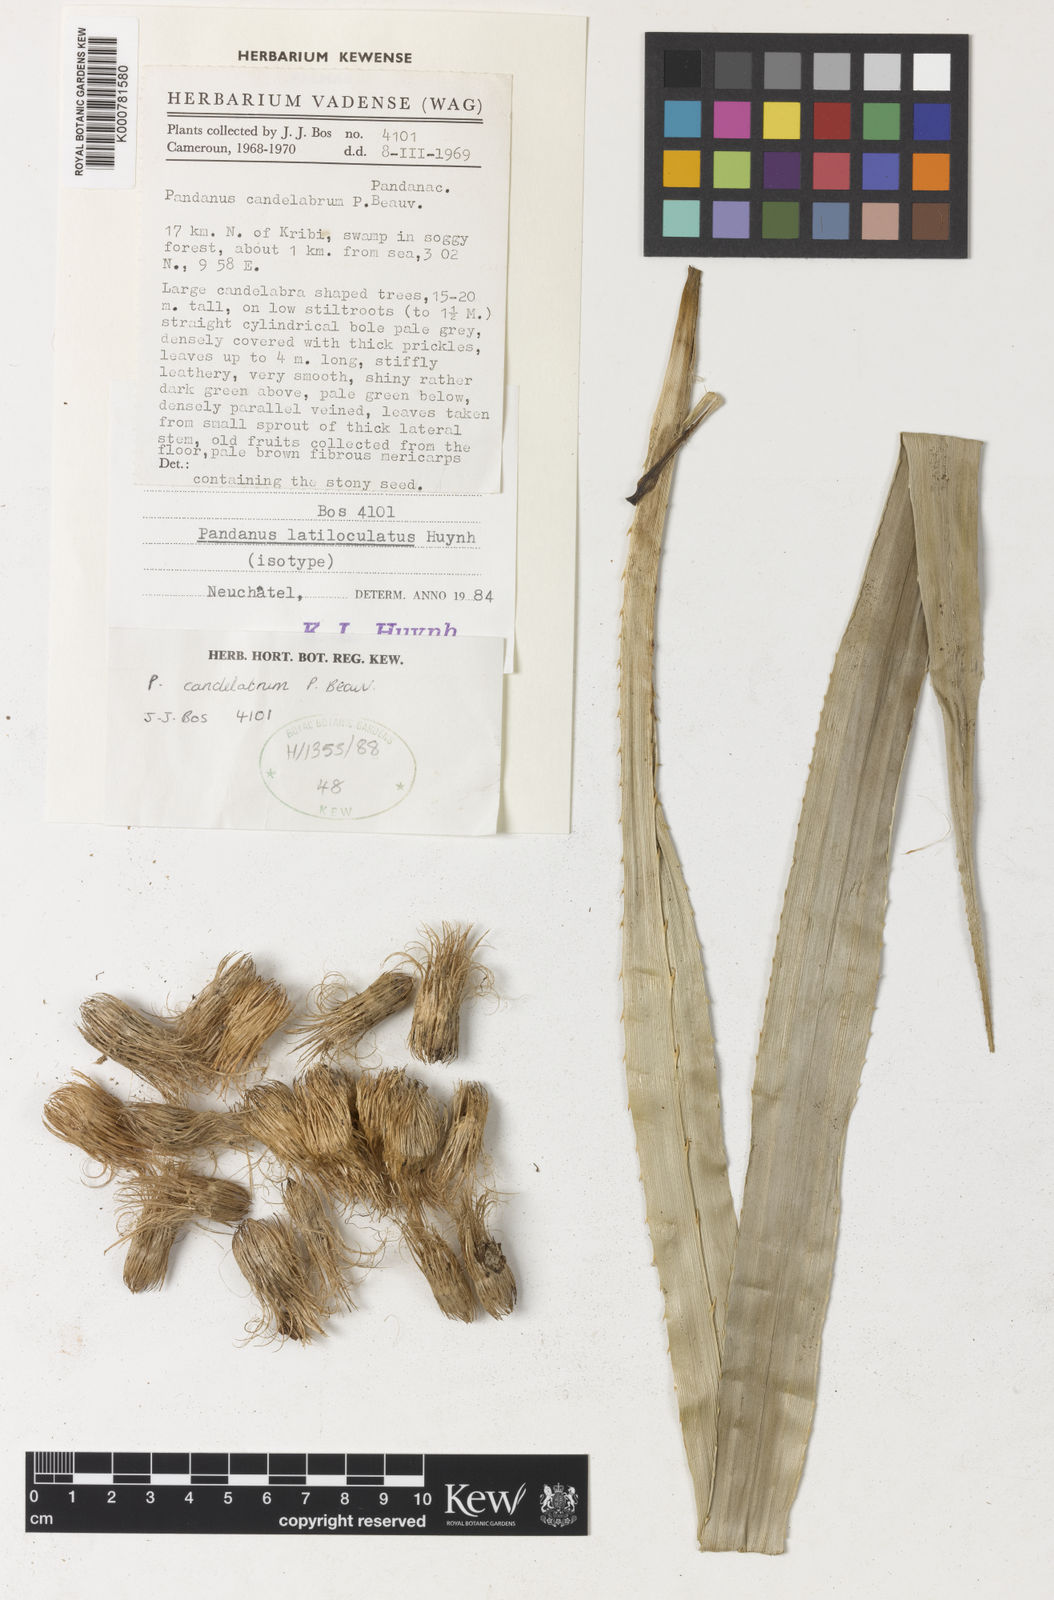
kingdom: Plantae
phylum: Tracheophyta
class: Liliopsida
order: Pandanales
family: Pandanaceae
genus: Pandanus
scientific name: Pandanus candelabrum
